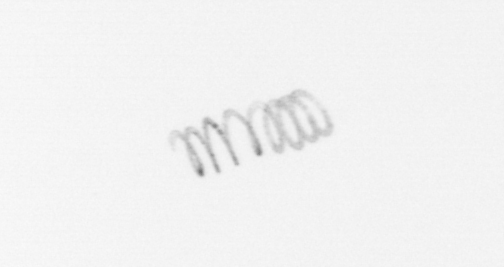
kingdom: Chromista
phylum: Ochrophyta
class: Bacillariophyceae
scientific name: Bacillariophyceae
